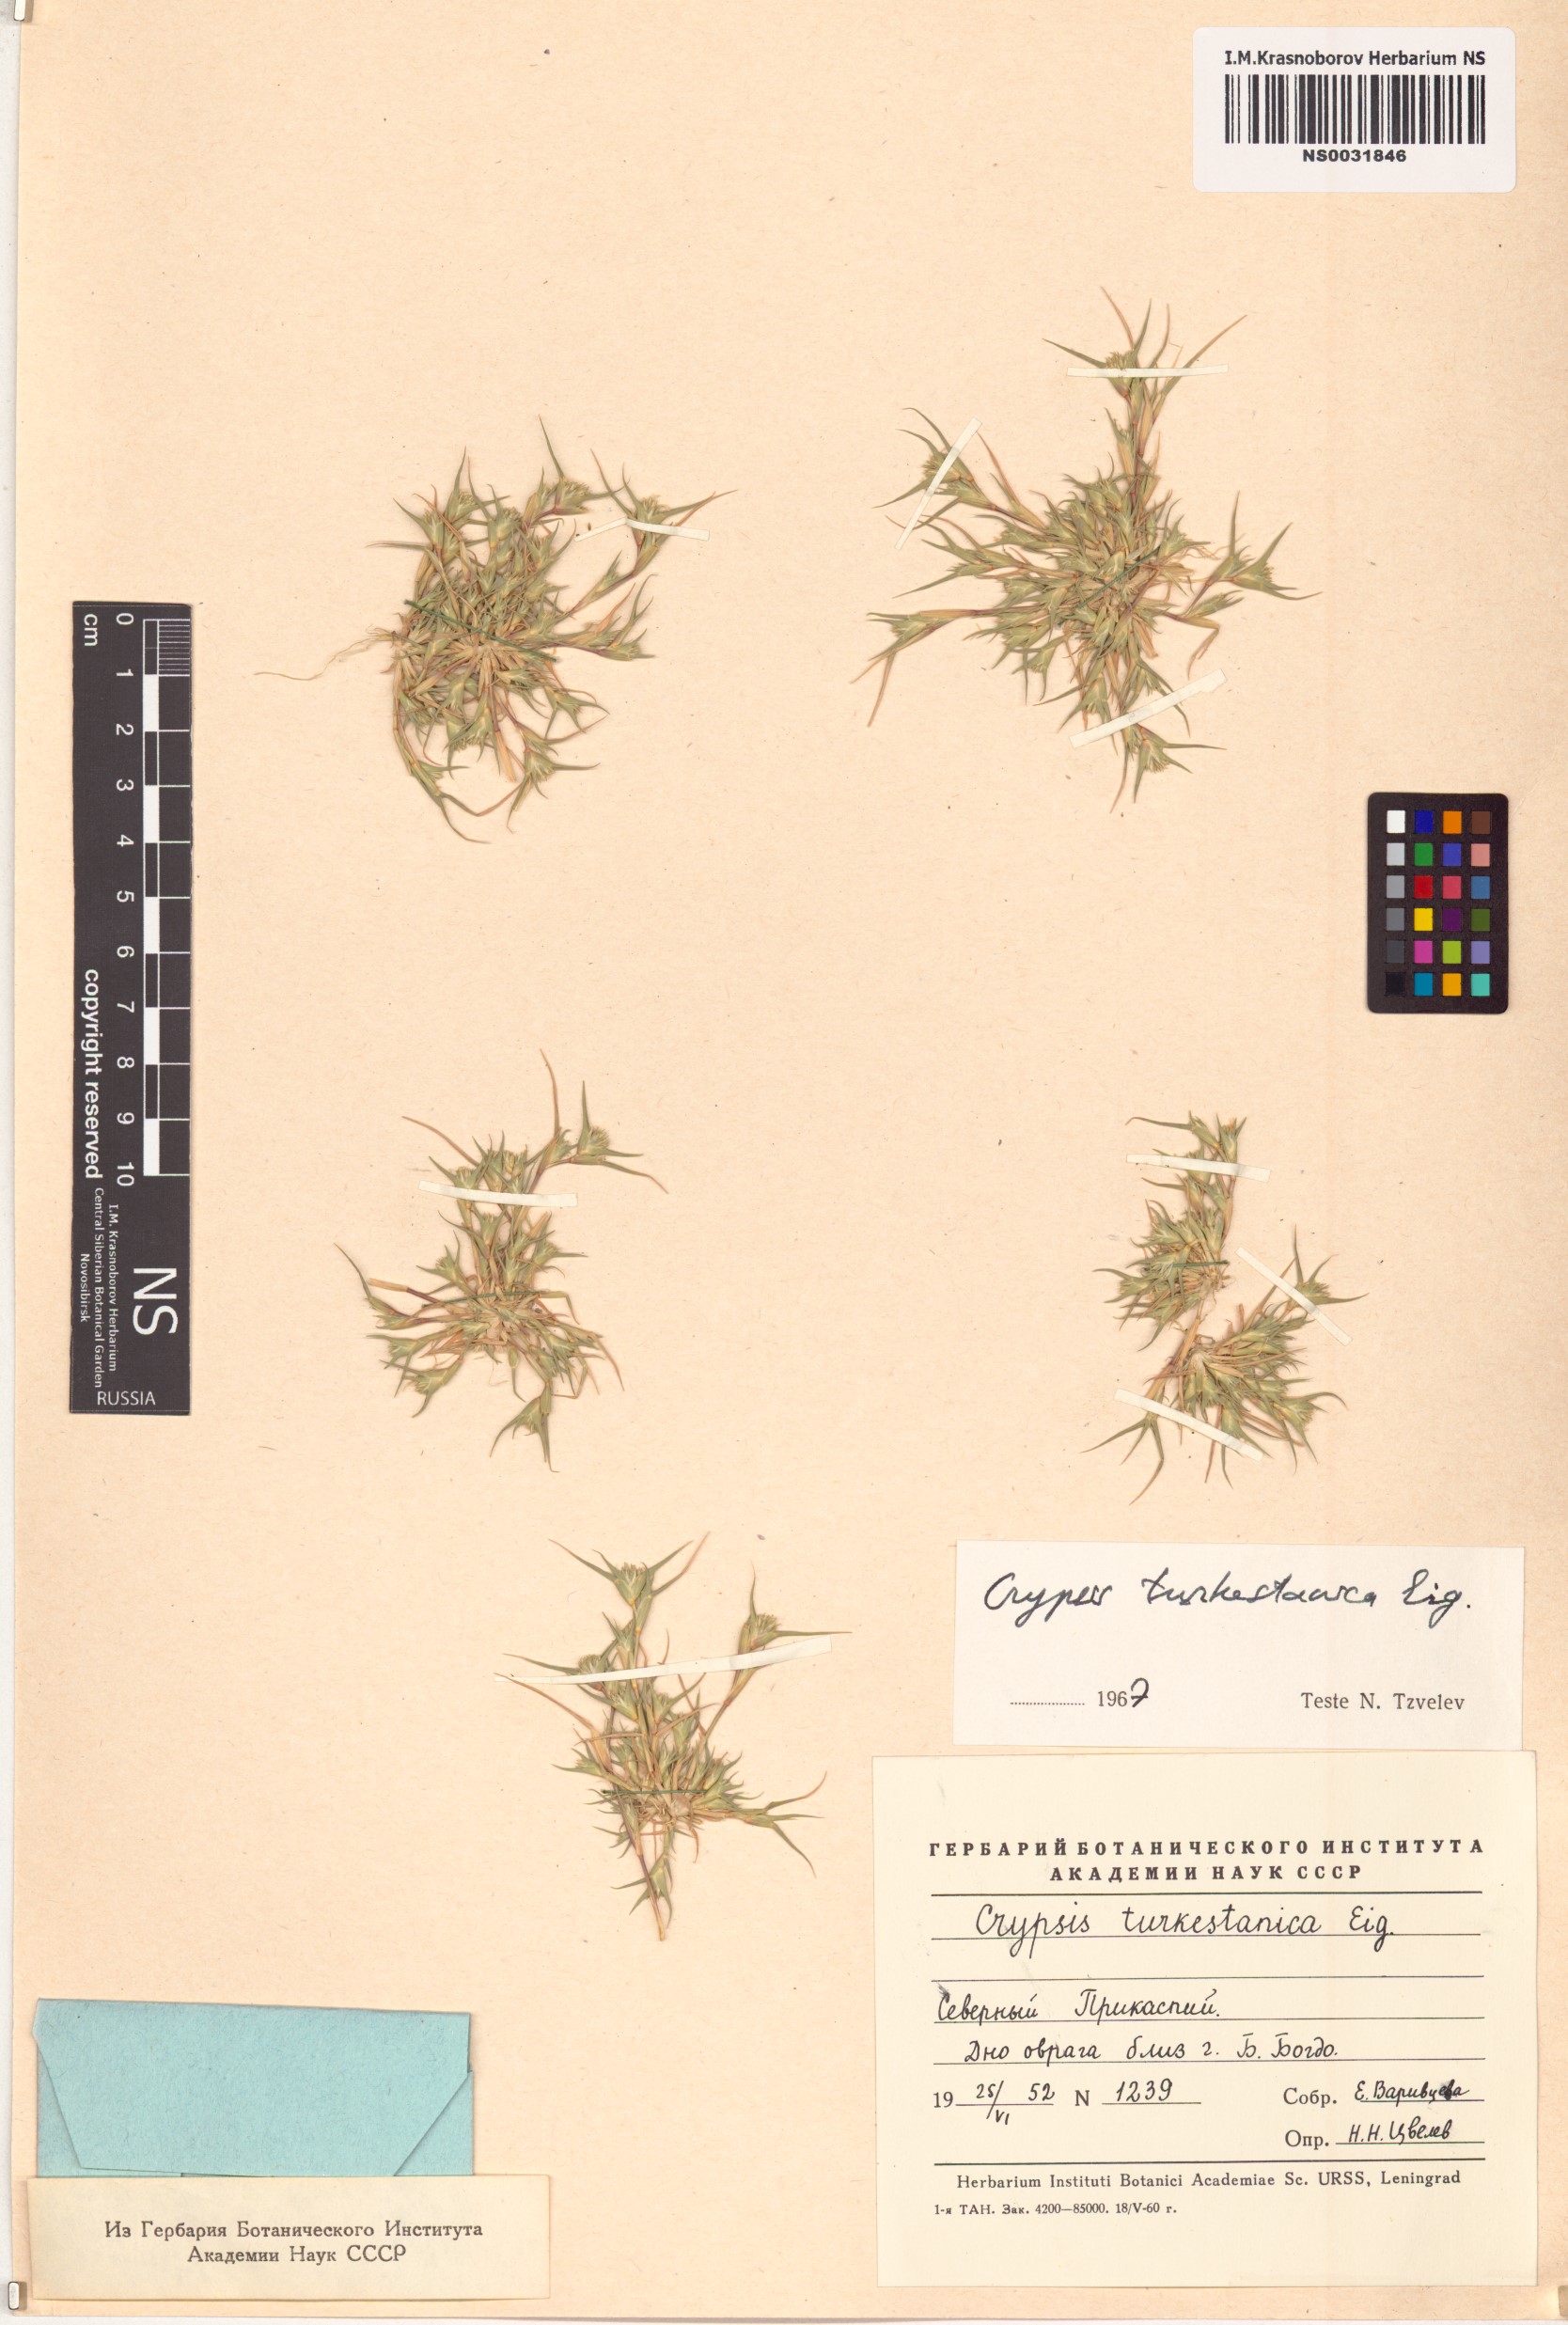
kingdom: Plantae
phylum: Tracheophyta
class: Liliopsida
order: Poales
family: Poaceae
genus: Sporobolus
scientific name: Sporobolus turkestanicus
